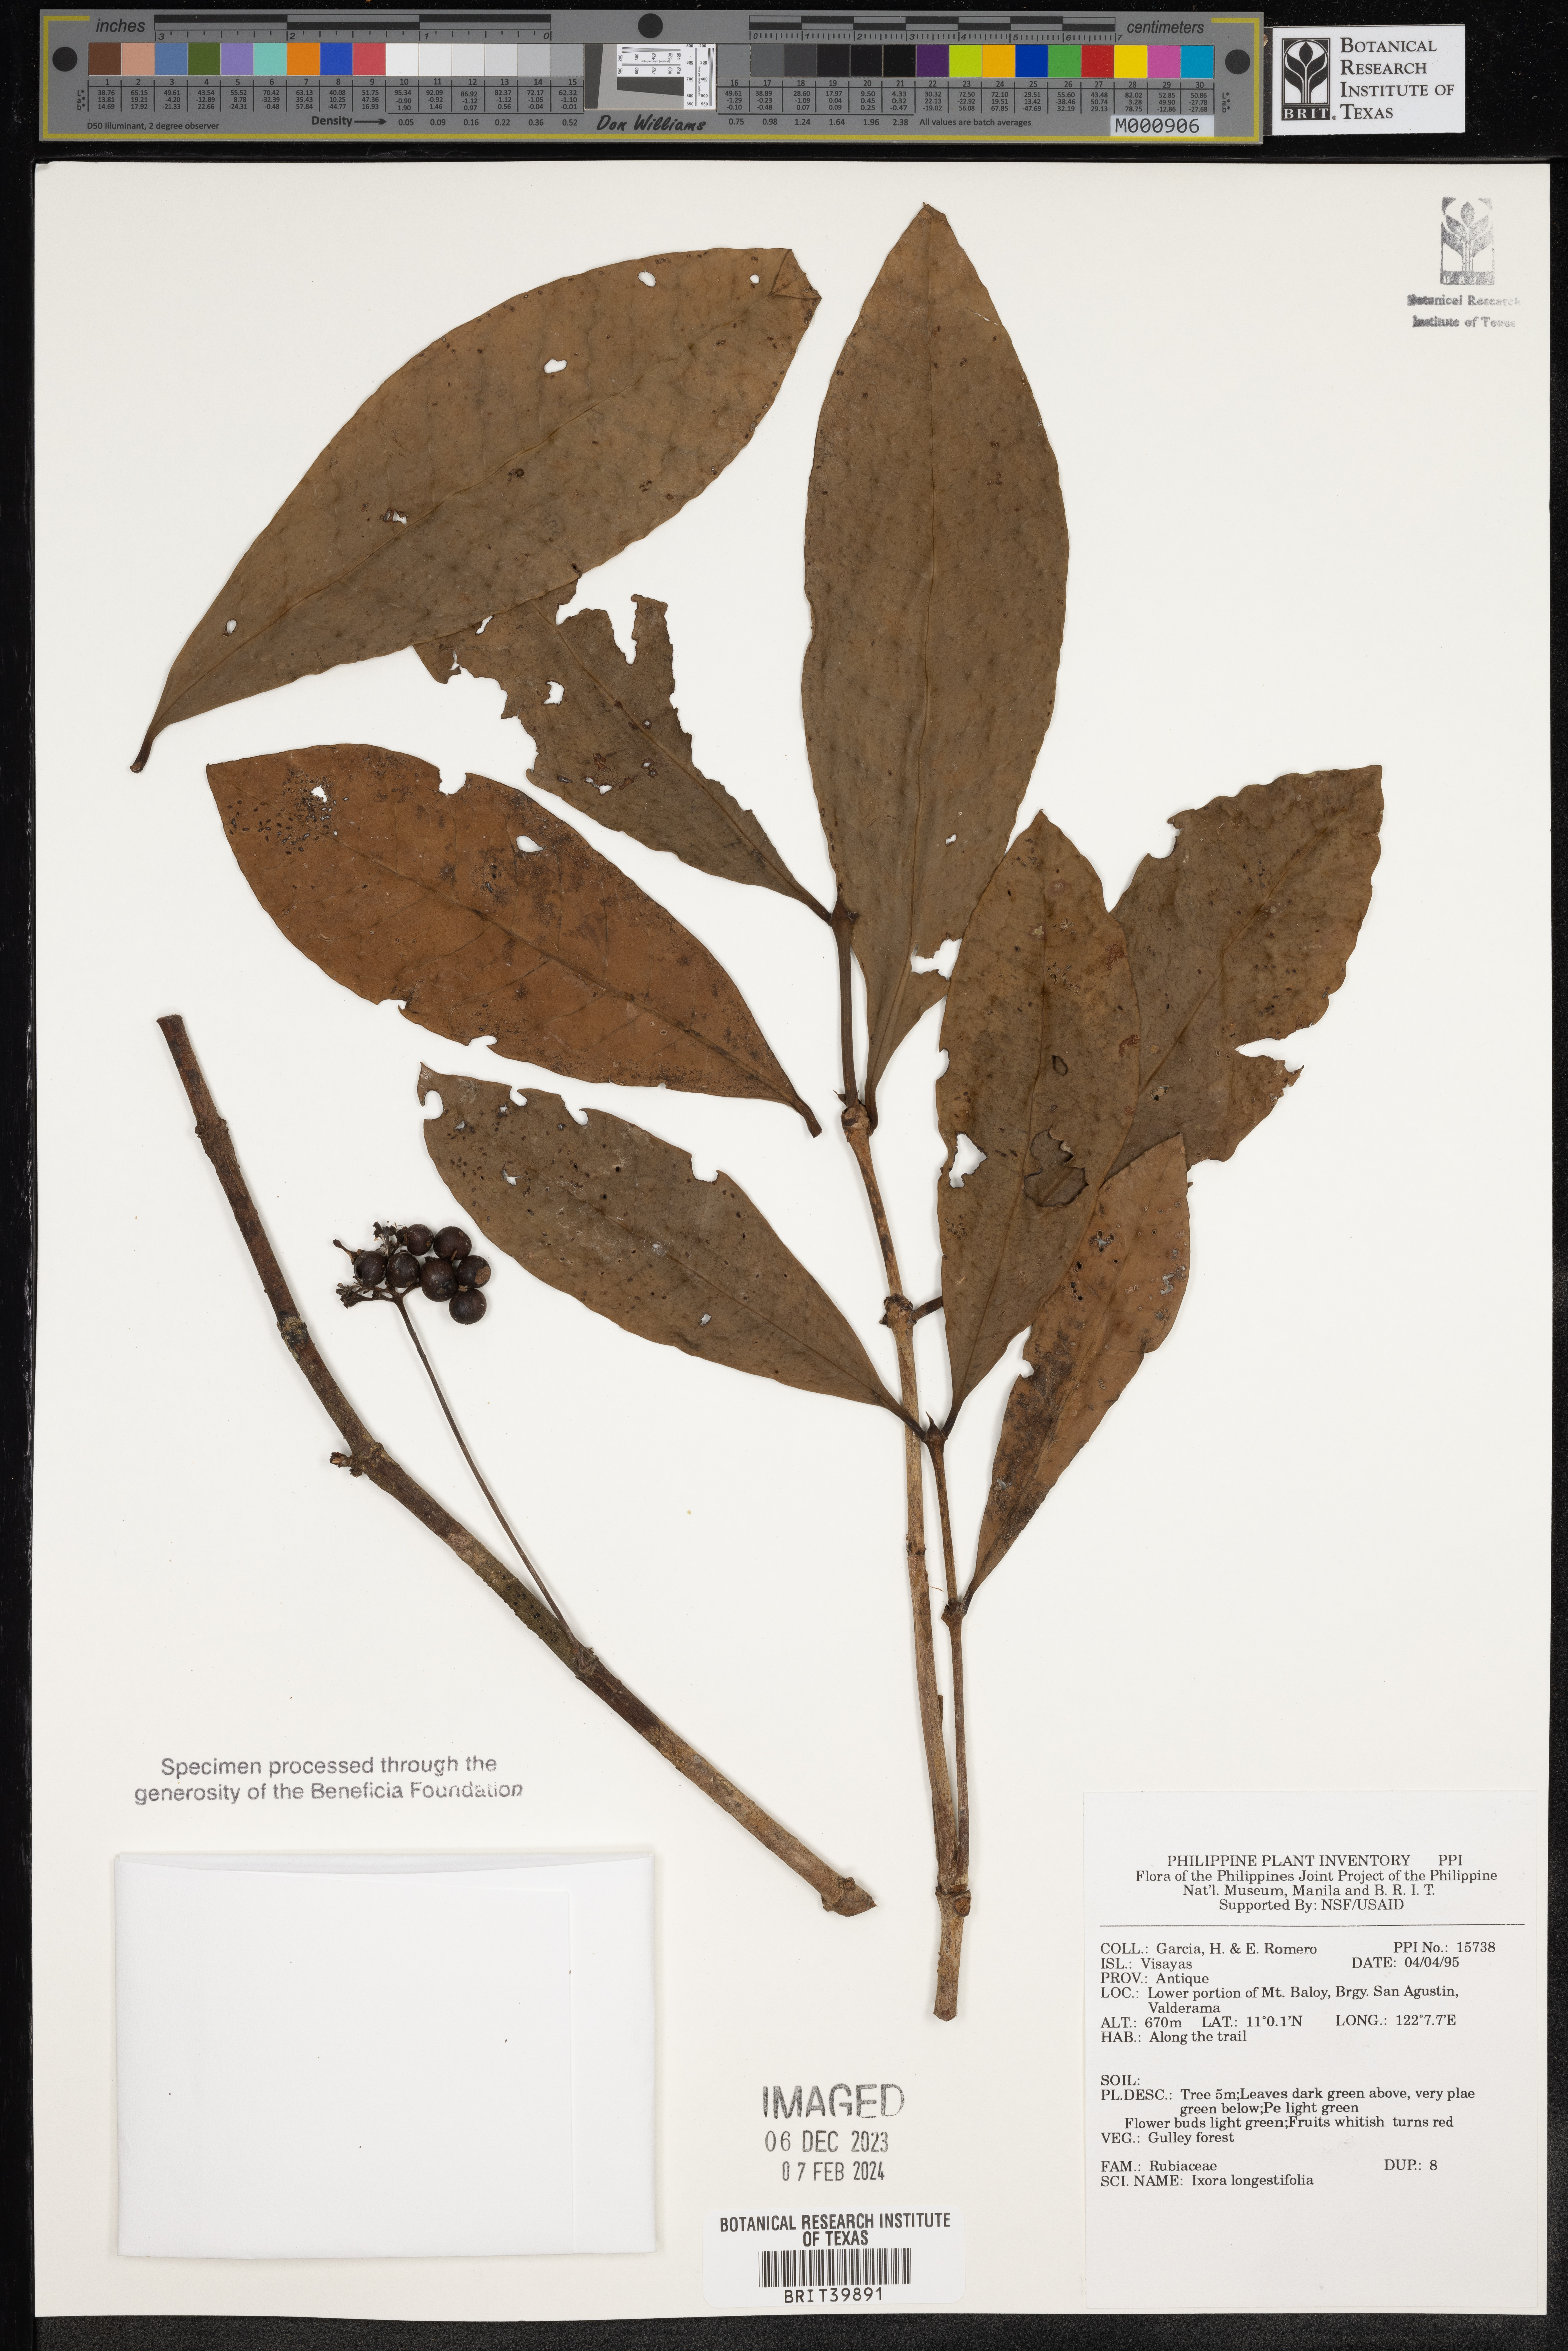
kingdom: Plantae
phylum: Tracheophyta
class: Magnoliopsida
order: Gentianales
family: Rubiaceae
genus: Ixora
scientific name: Ixora
